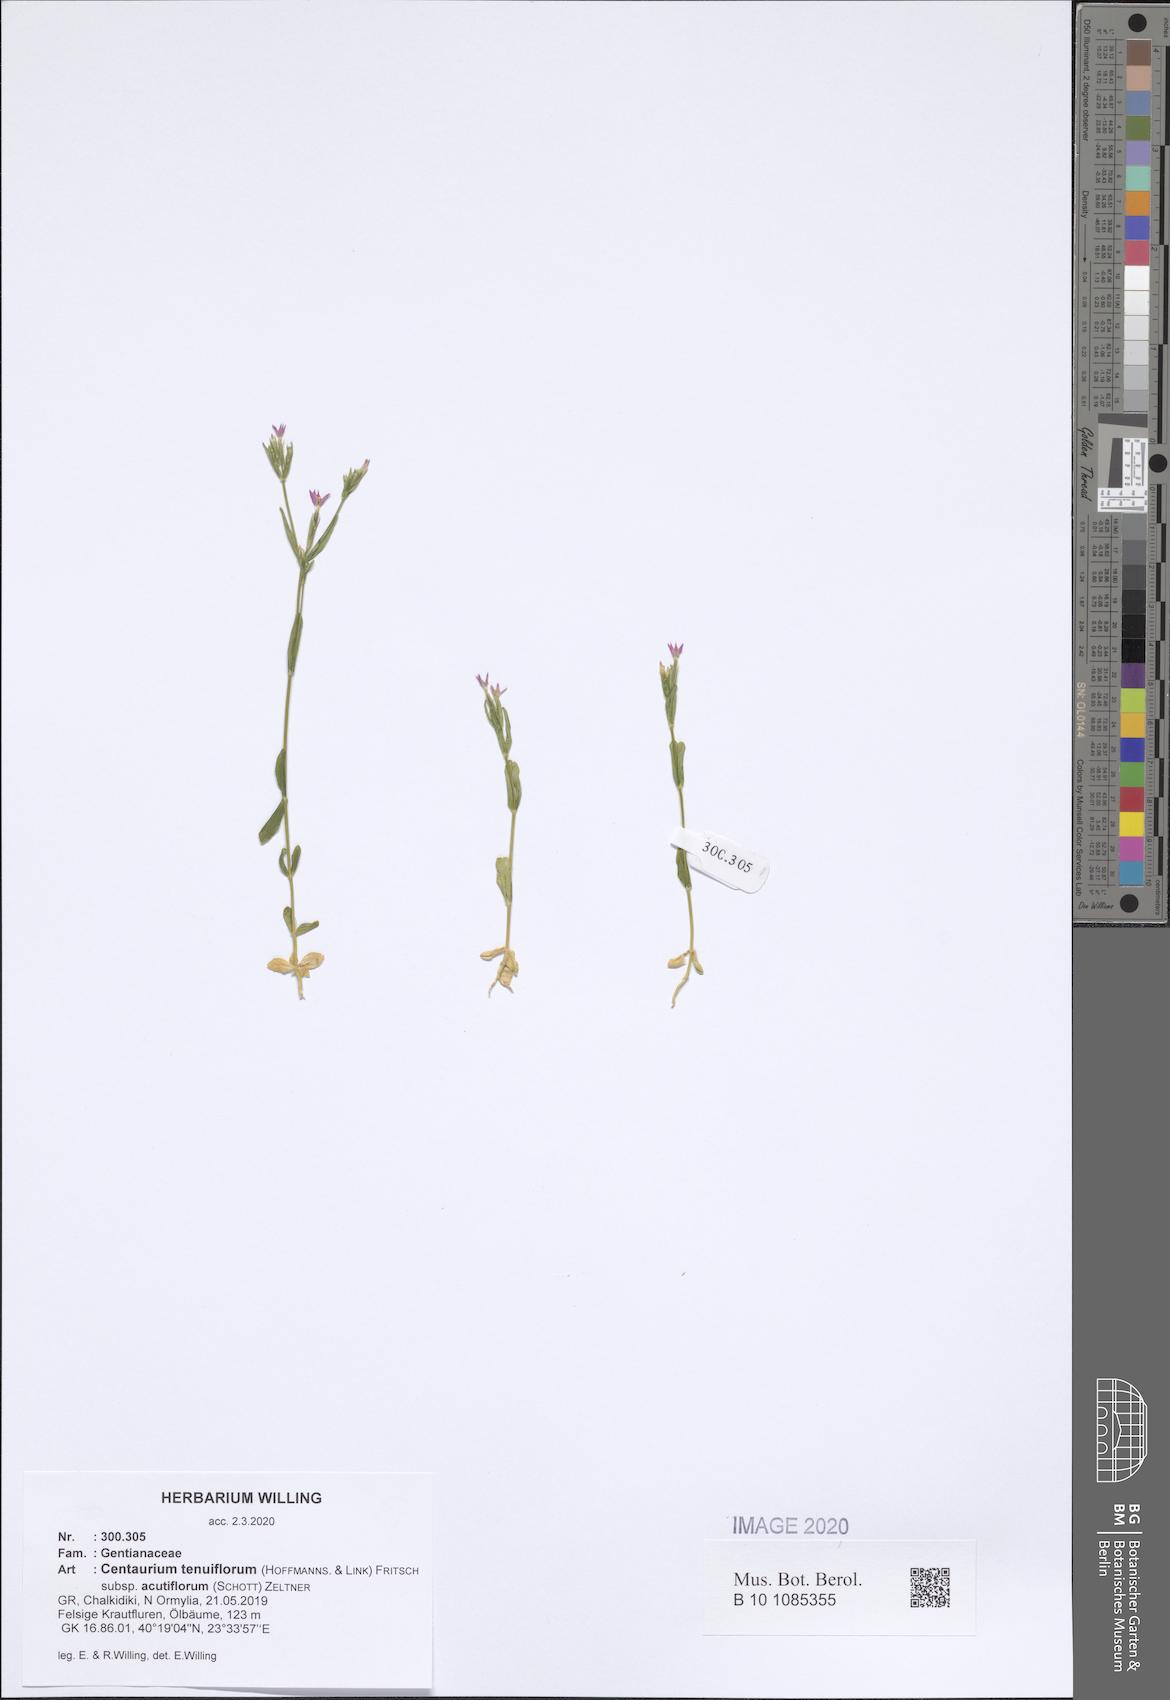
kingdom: Plantae
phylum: Tracheophyta
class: Magnoliopsida
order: Gentianales
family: Gentianaceae
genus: Centaurium
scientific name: Centaurium tenuiflorum
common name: Slender centaury
